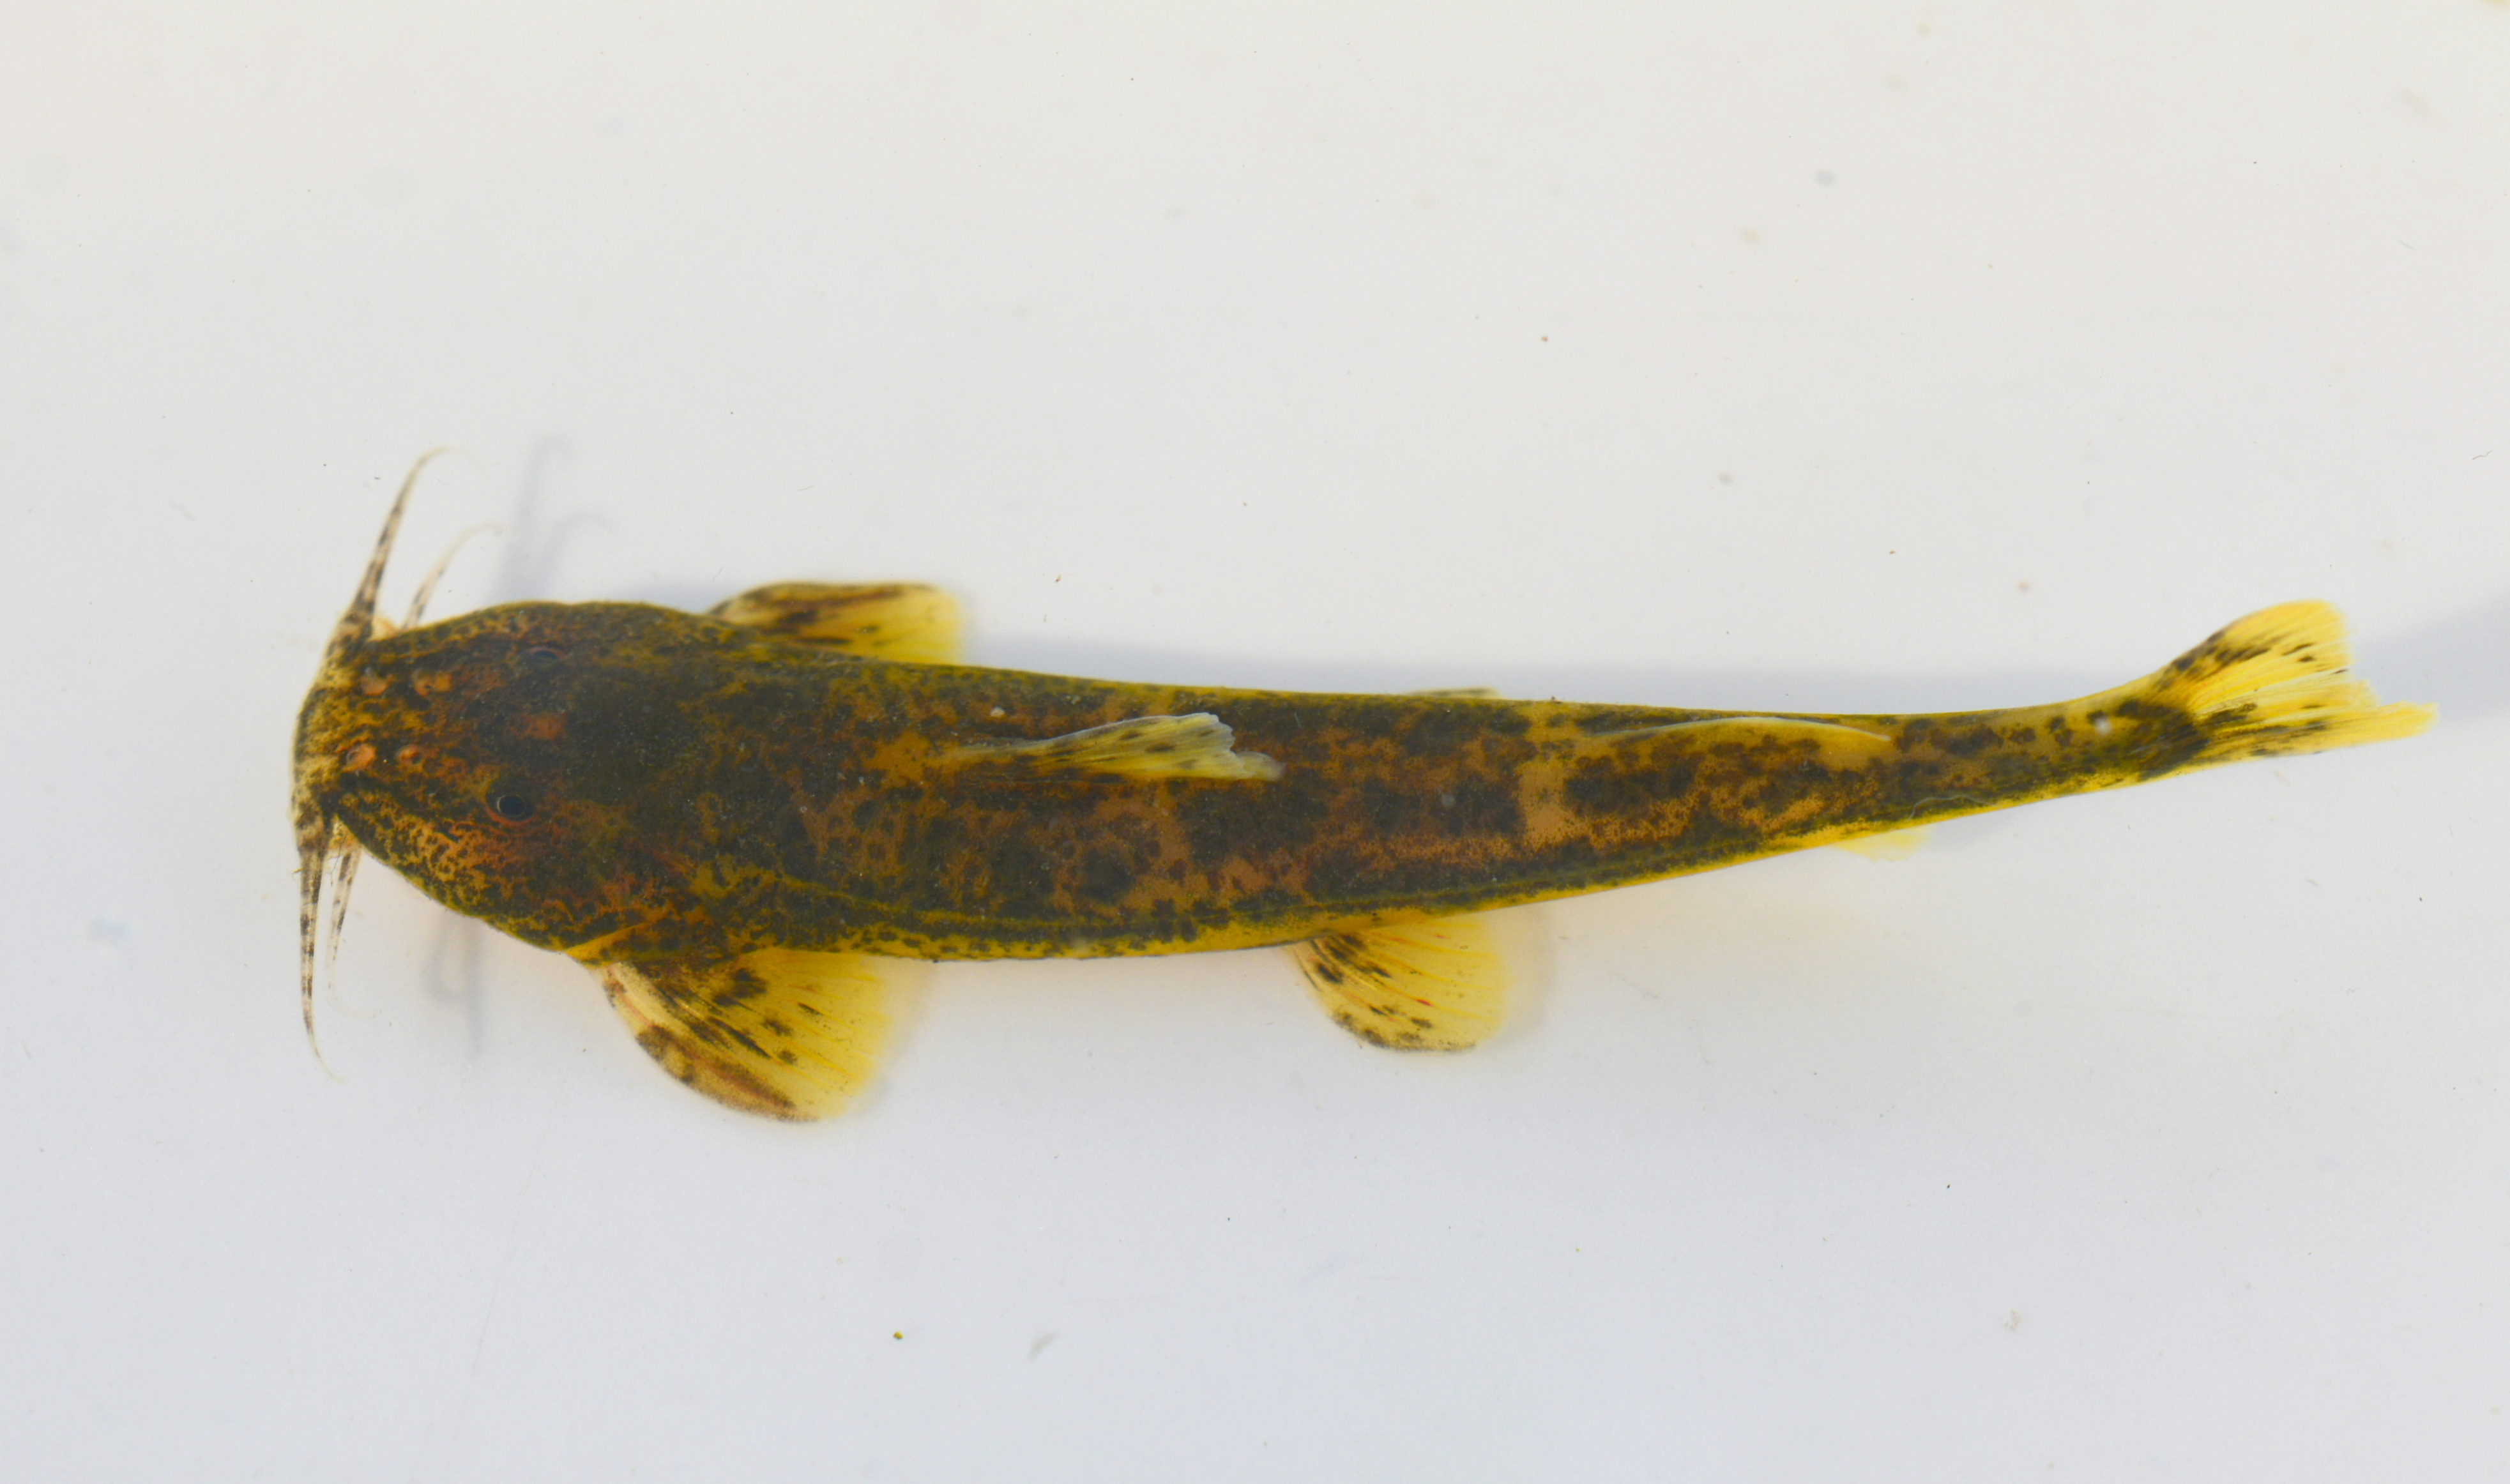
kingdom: Animalia
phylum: Chordata
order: Perciformes
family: Cichlidae
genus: Oreochromis
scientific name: Oreochromis andersonii
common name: Threespot tilapia
